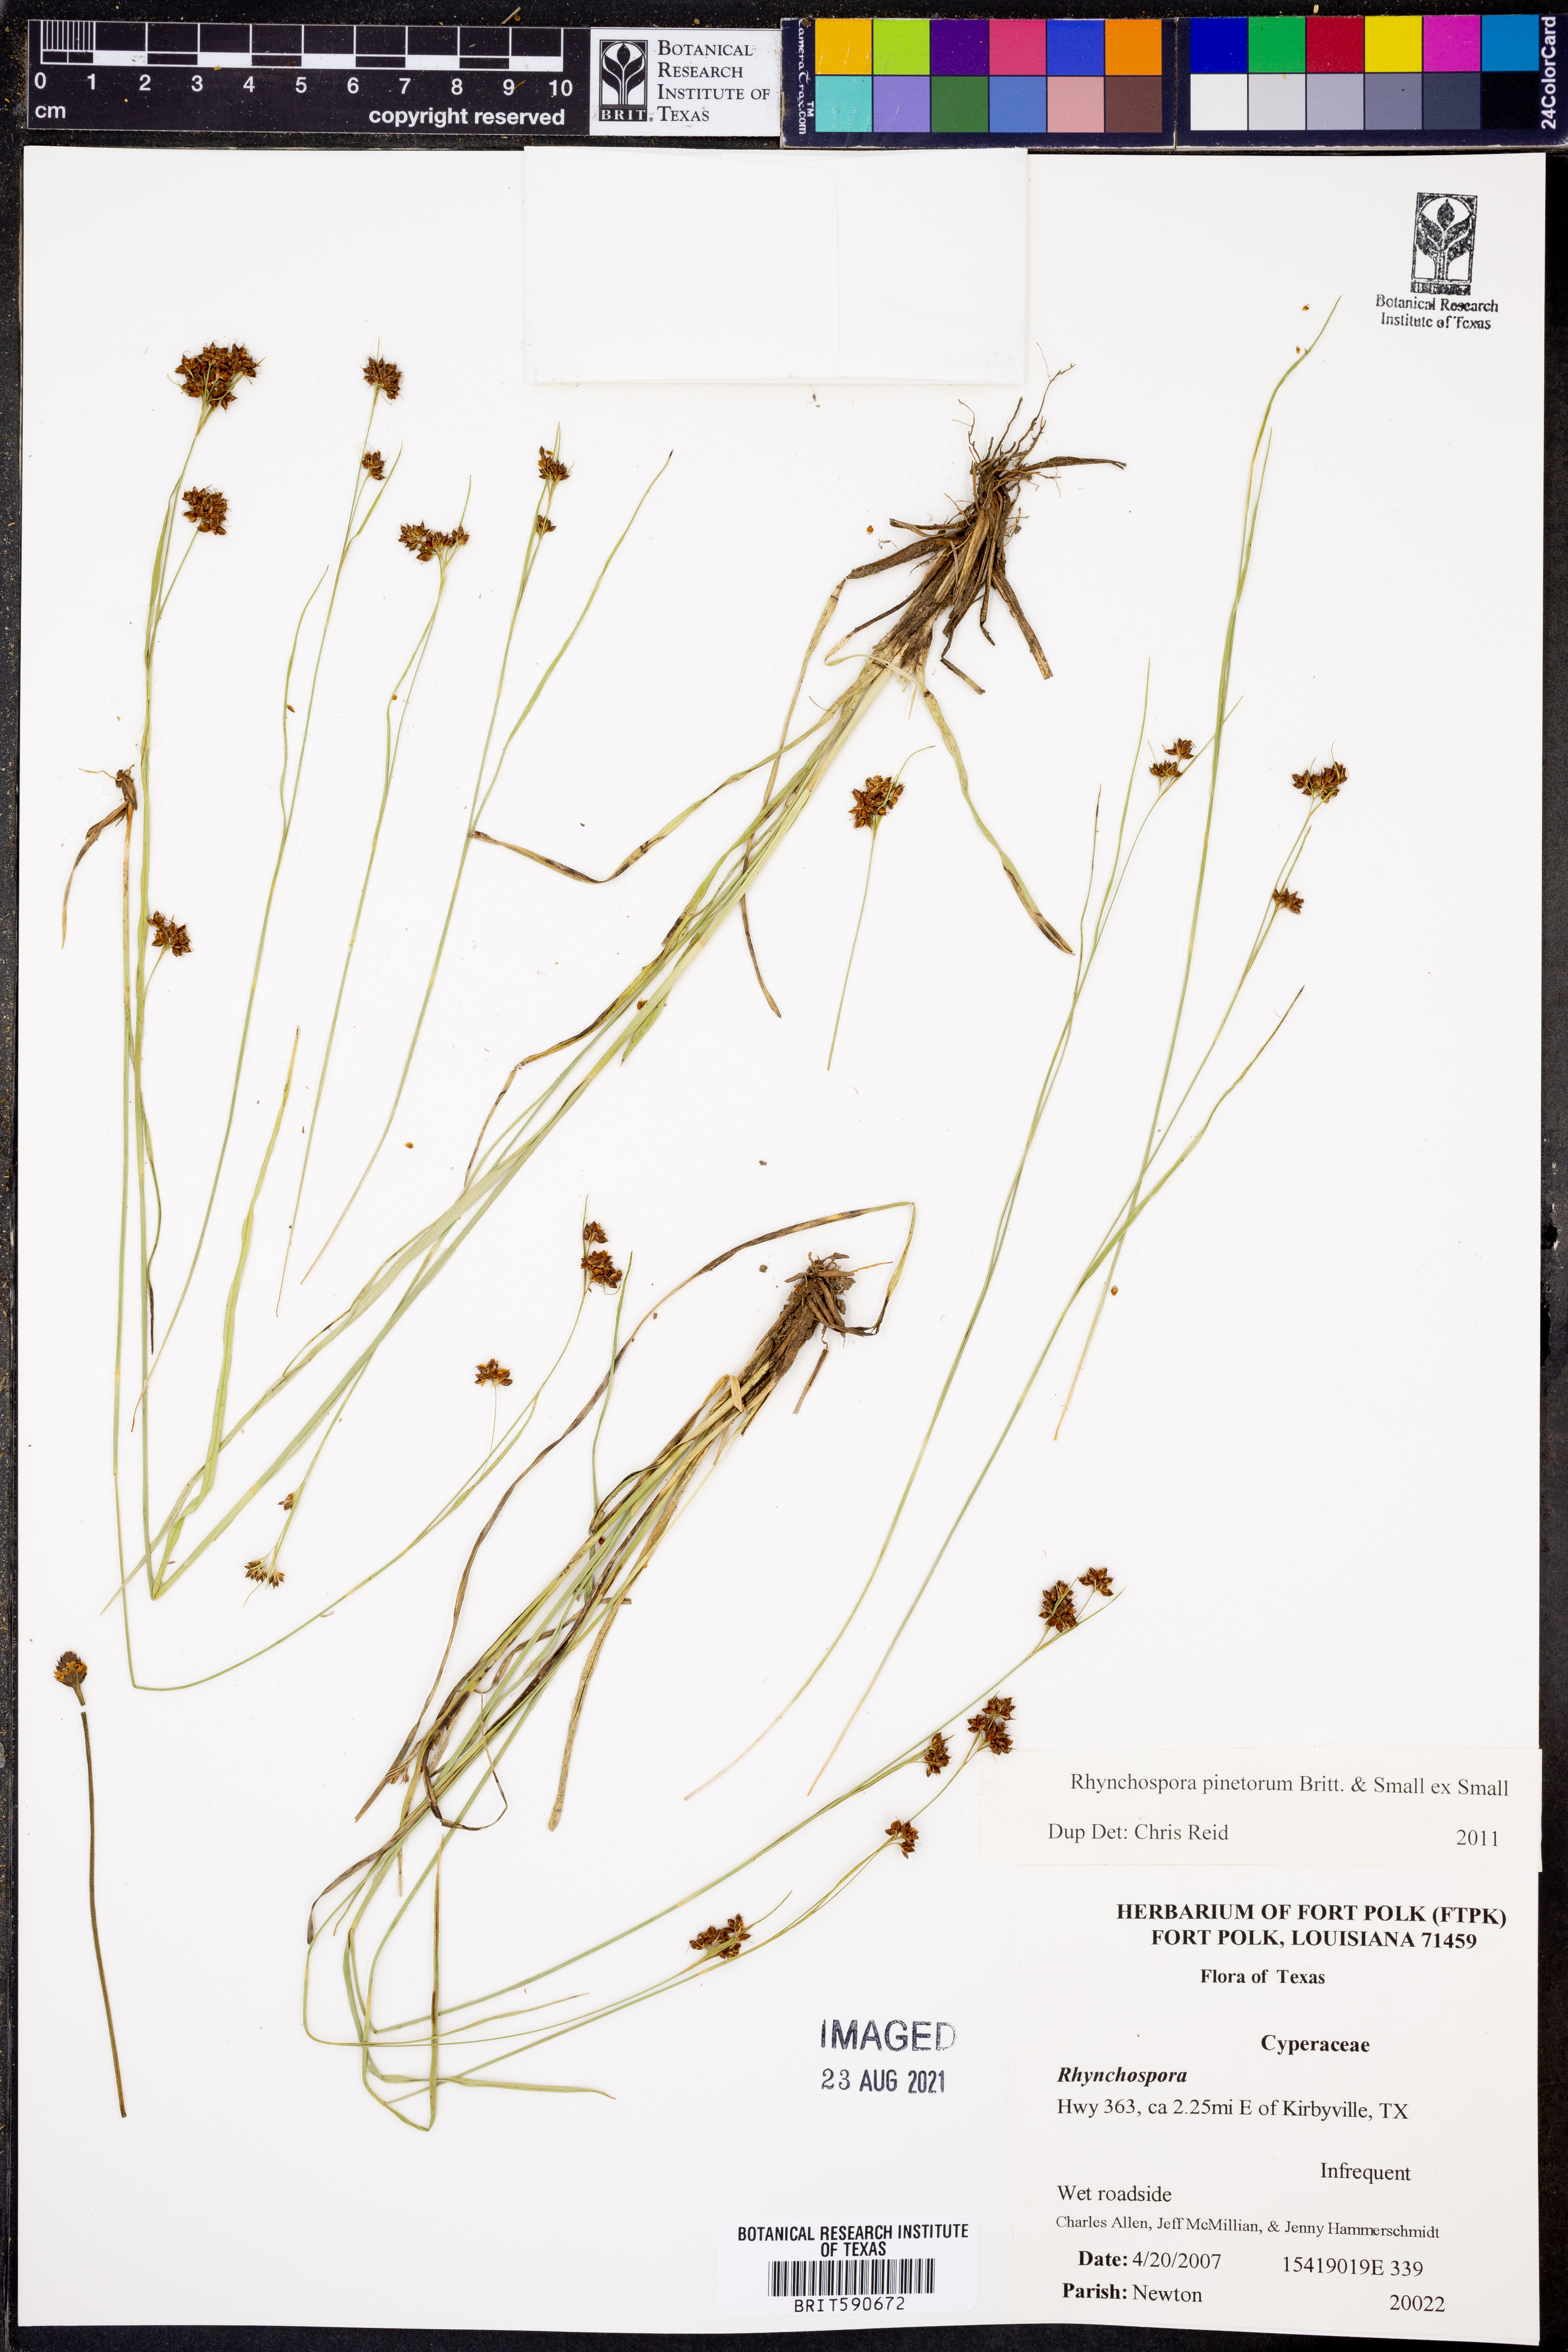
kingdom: Plantae
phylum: Tracheophyta
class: Liliopsida
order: Poales
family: Cyperaceae
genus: Rhynchospora
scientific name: Rhynchospora globularis
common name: Globe beaksedge
